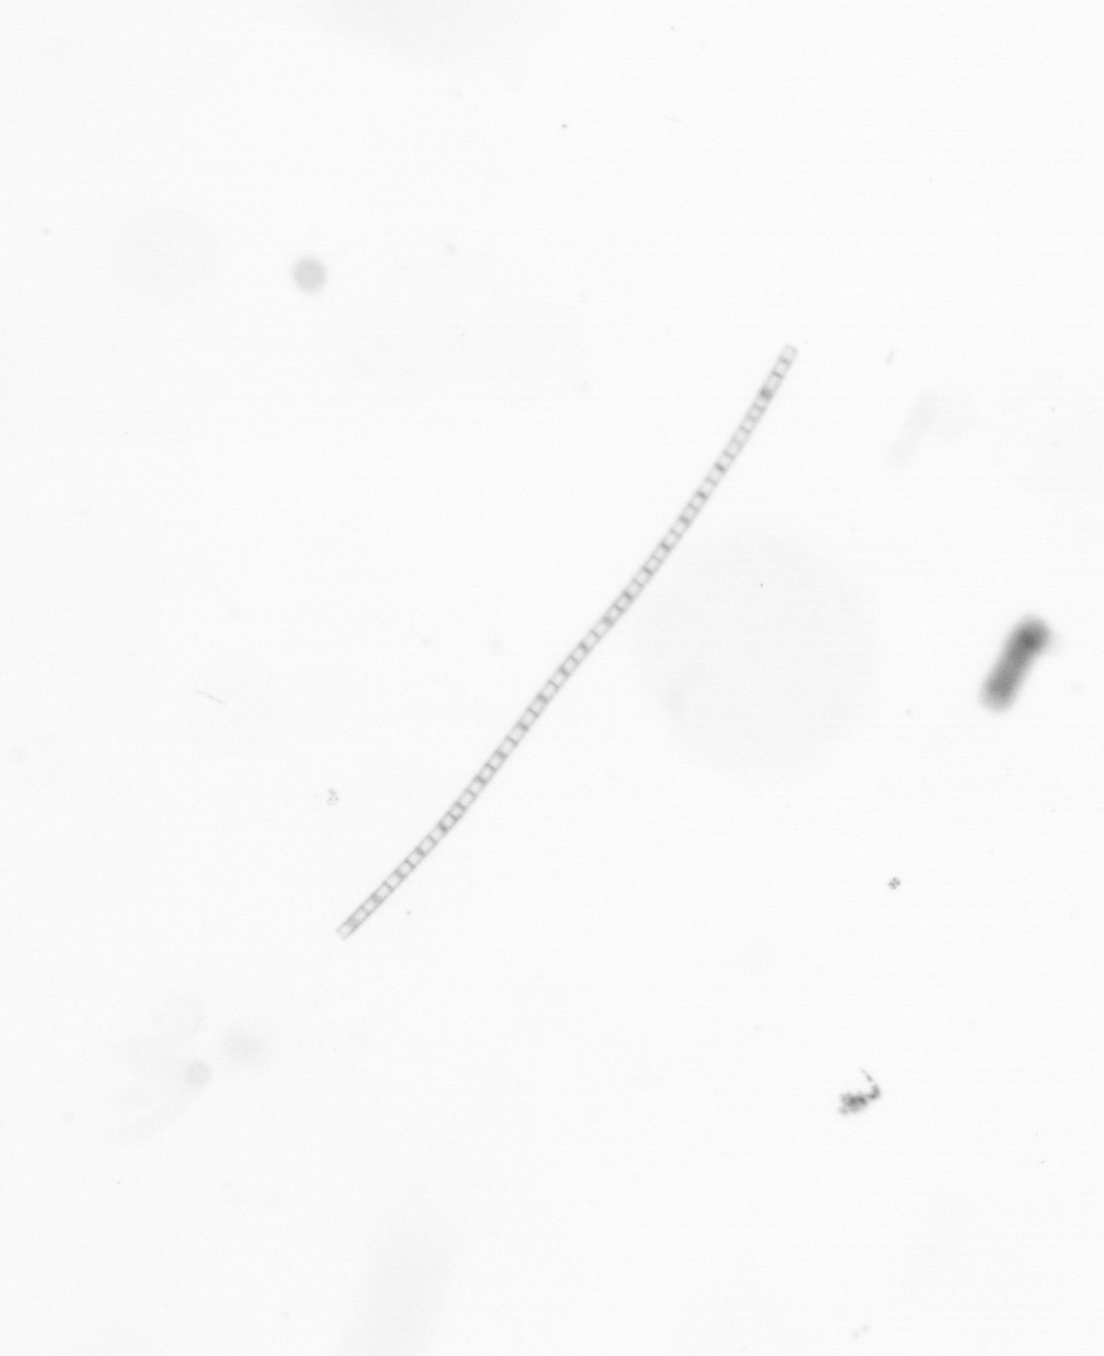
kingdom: Chromista
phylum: Ochrophyta
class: Bacillariophyceae
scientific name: Bacillariophyceae
